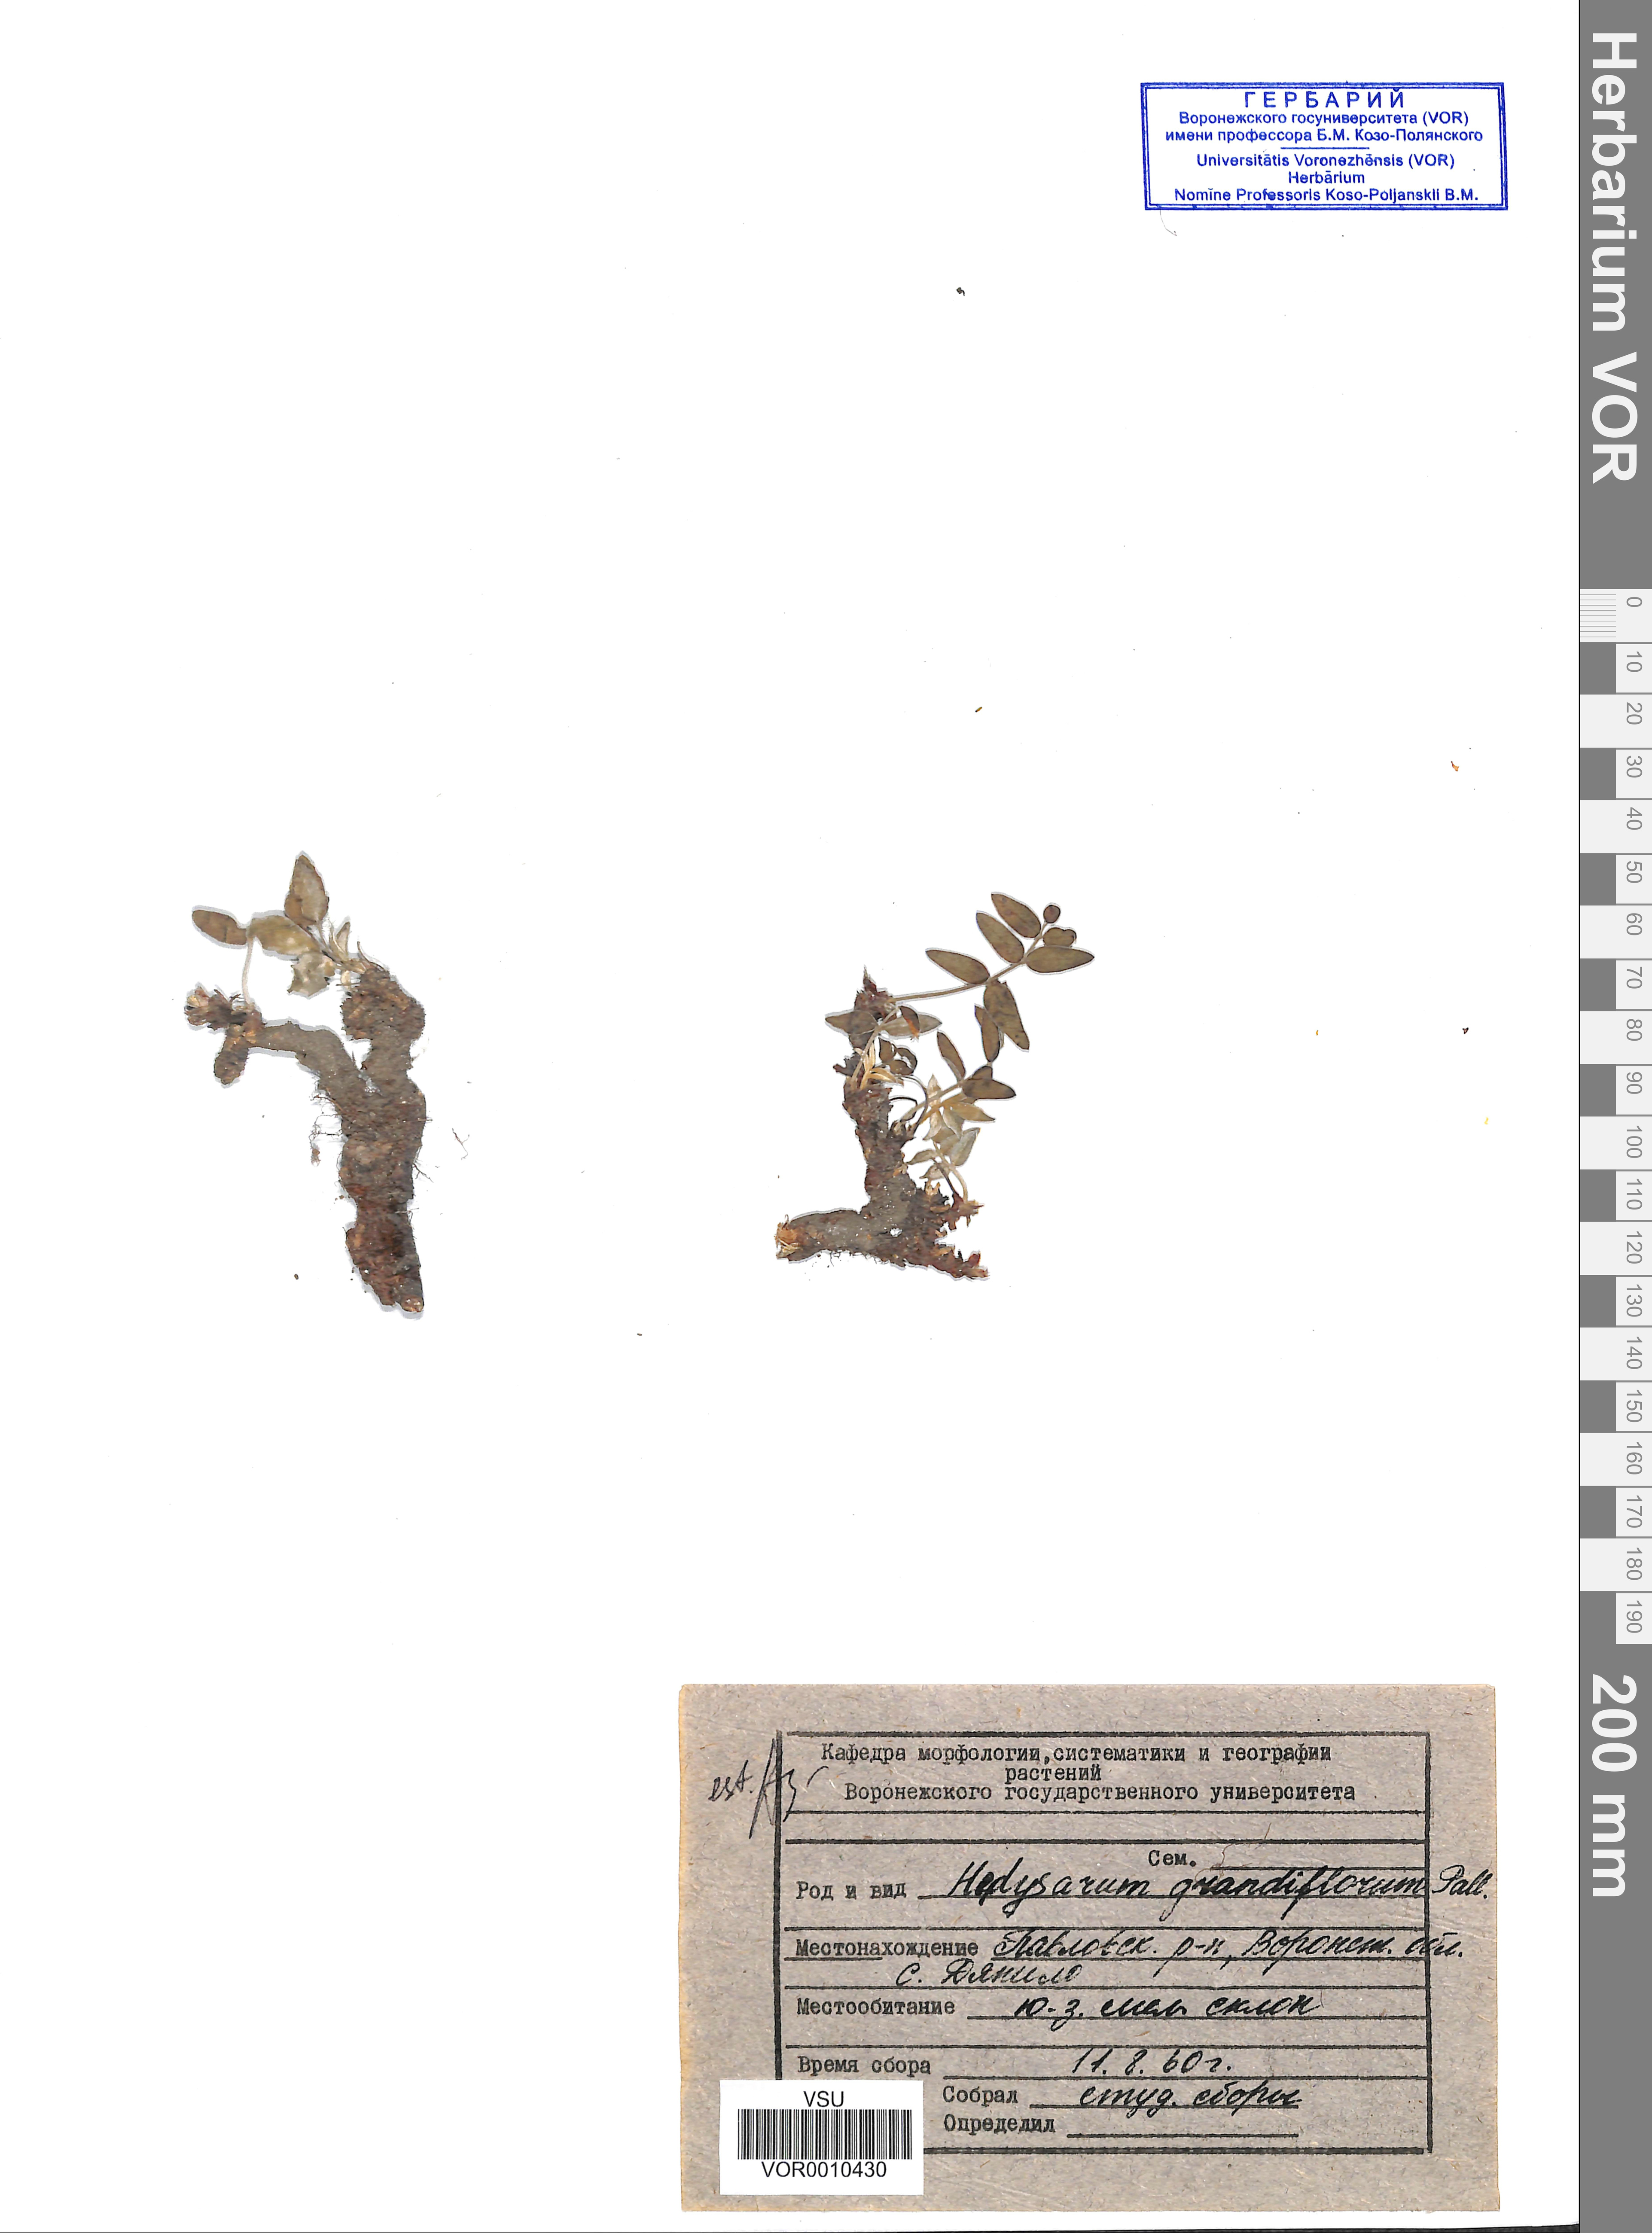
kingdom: Plantae
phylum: Tracheophyta
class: Magnoliopsida
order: Fabales
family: Fabaceae
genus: Hedysarum
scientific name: Hedysarum grandiflorum
